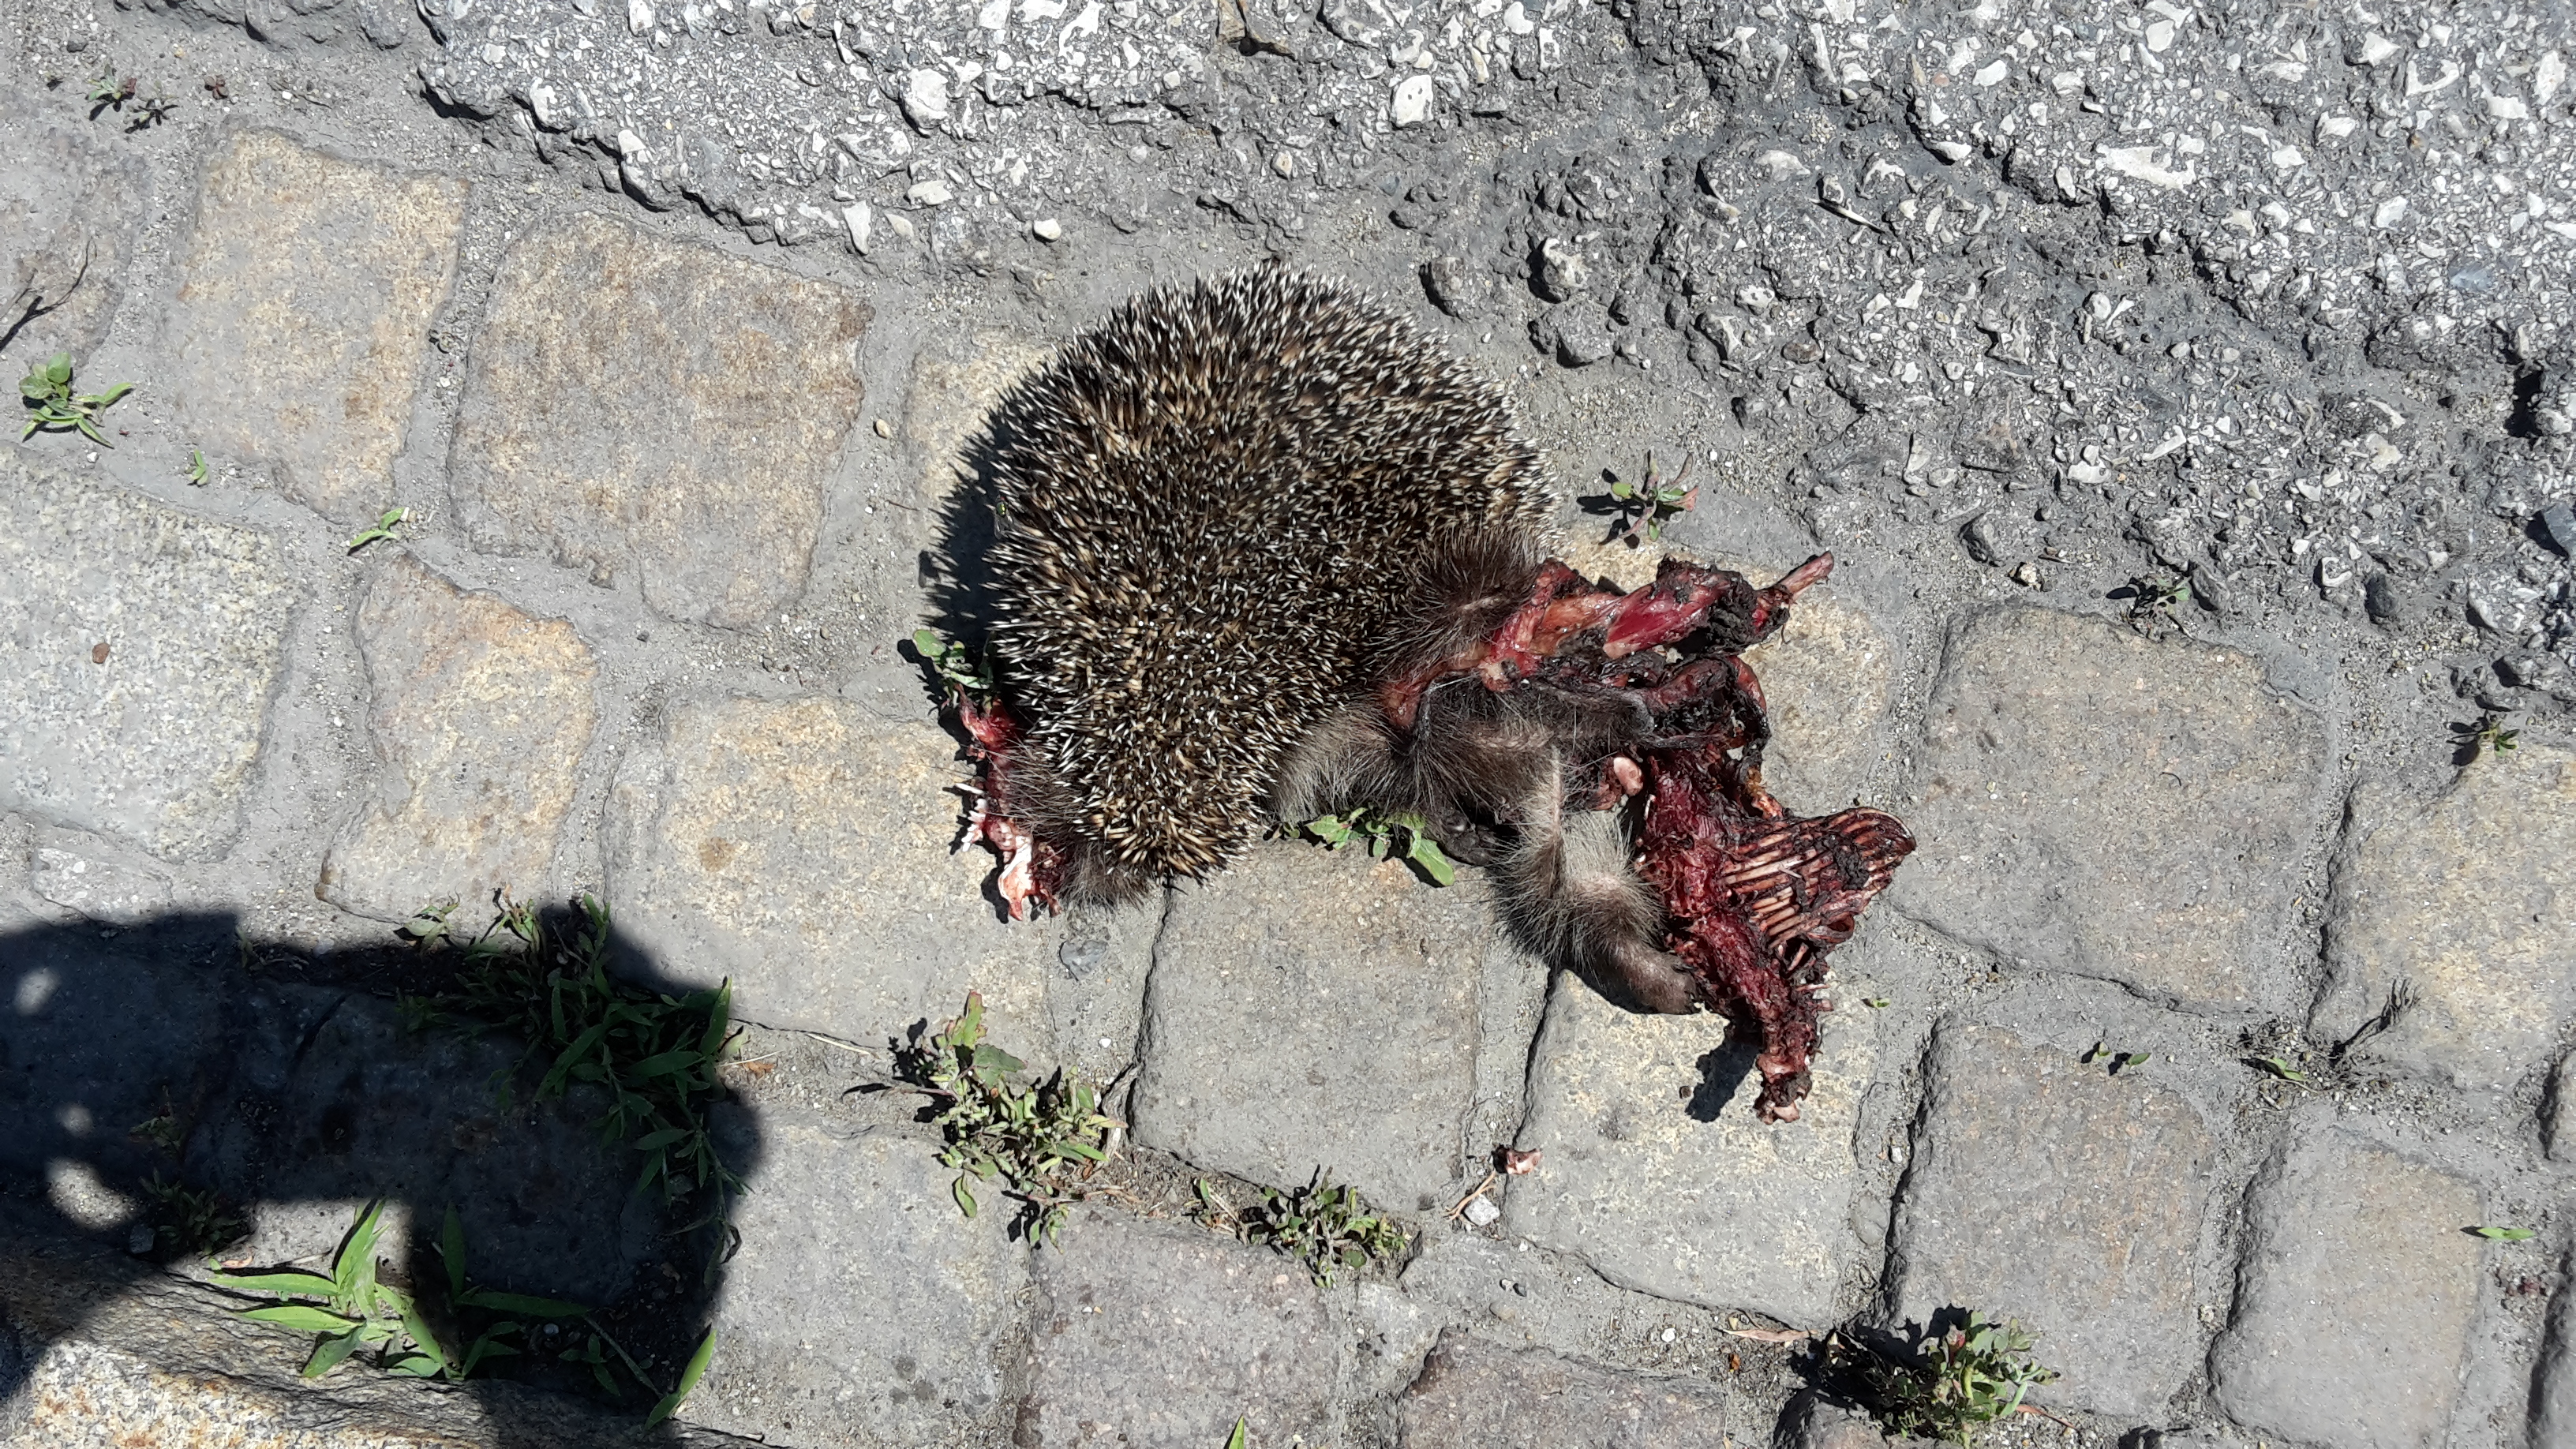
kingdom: Animalia
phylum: Chordata
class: Mammalia
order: Erinaceomorpha
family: Erinaceidae
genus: Erinaceus
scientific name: Erinaceus
